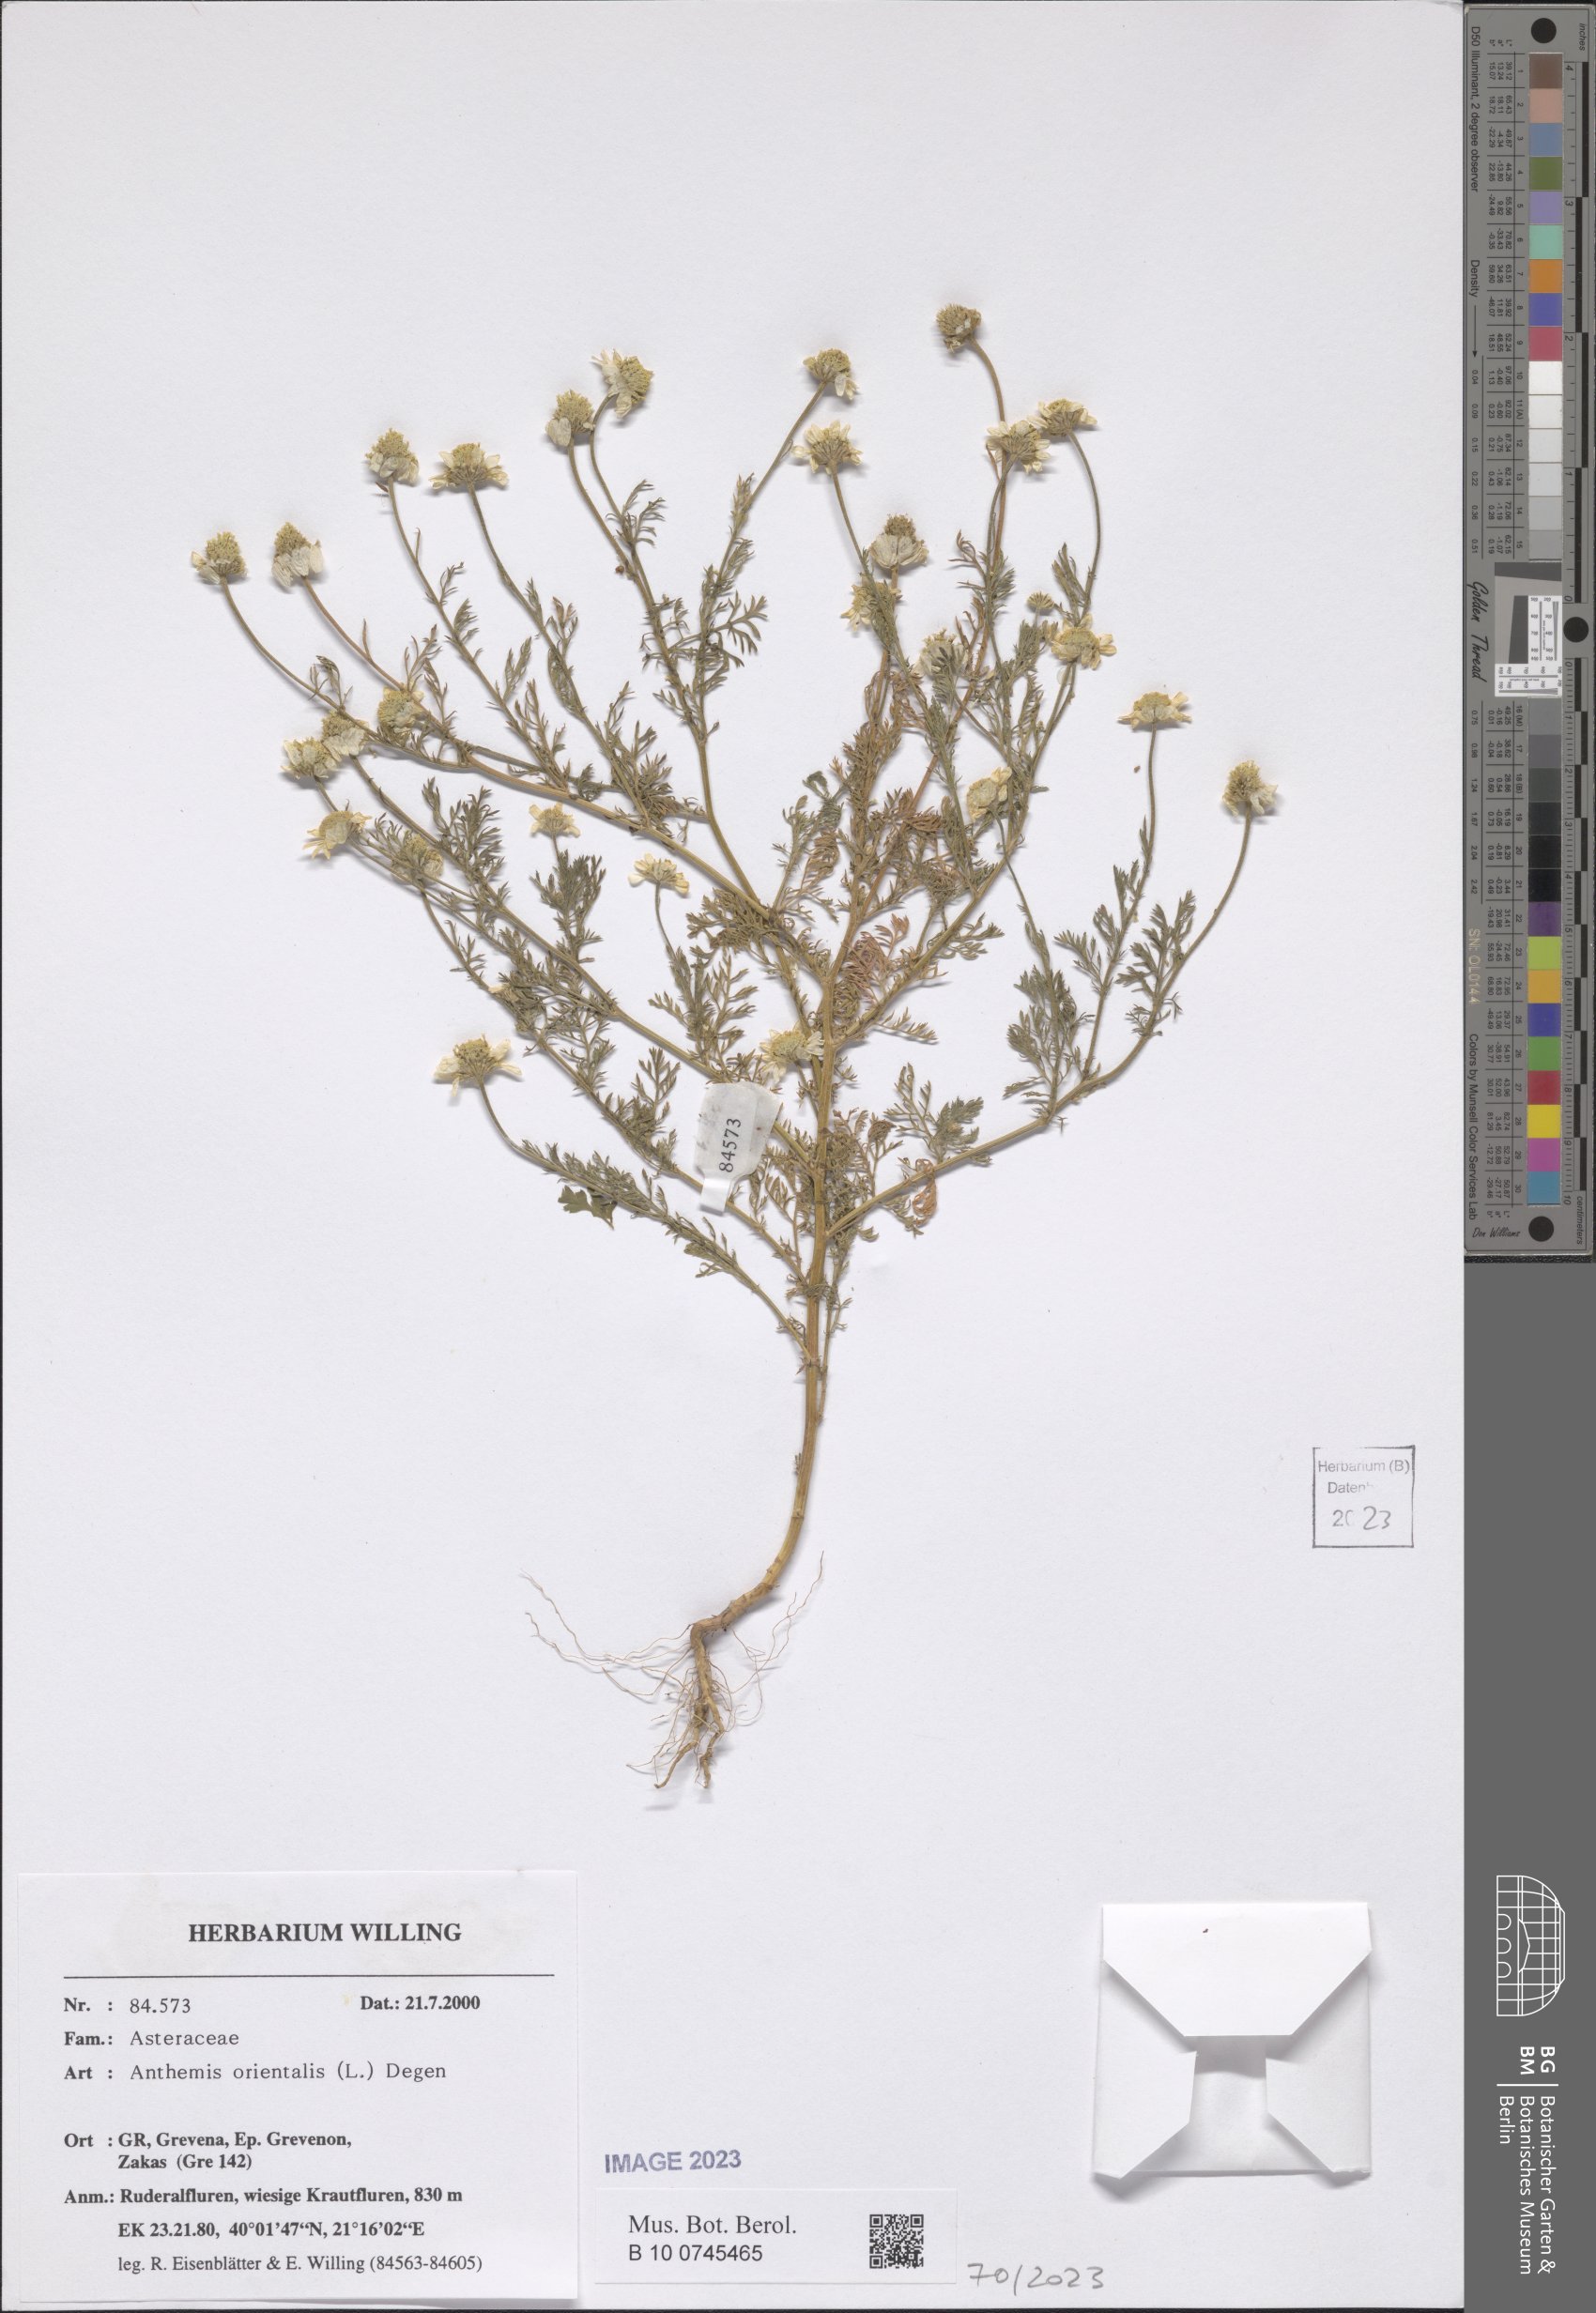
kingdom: Plantae
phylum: Tracheophyta
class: Magnoliopsida
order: Asterales
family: Asteraceae
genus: Anthemis
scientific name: Anthemis orientalis
